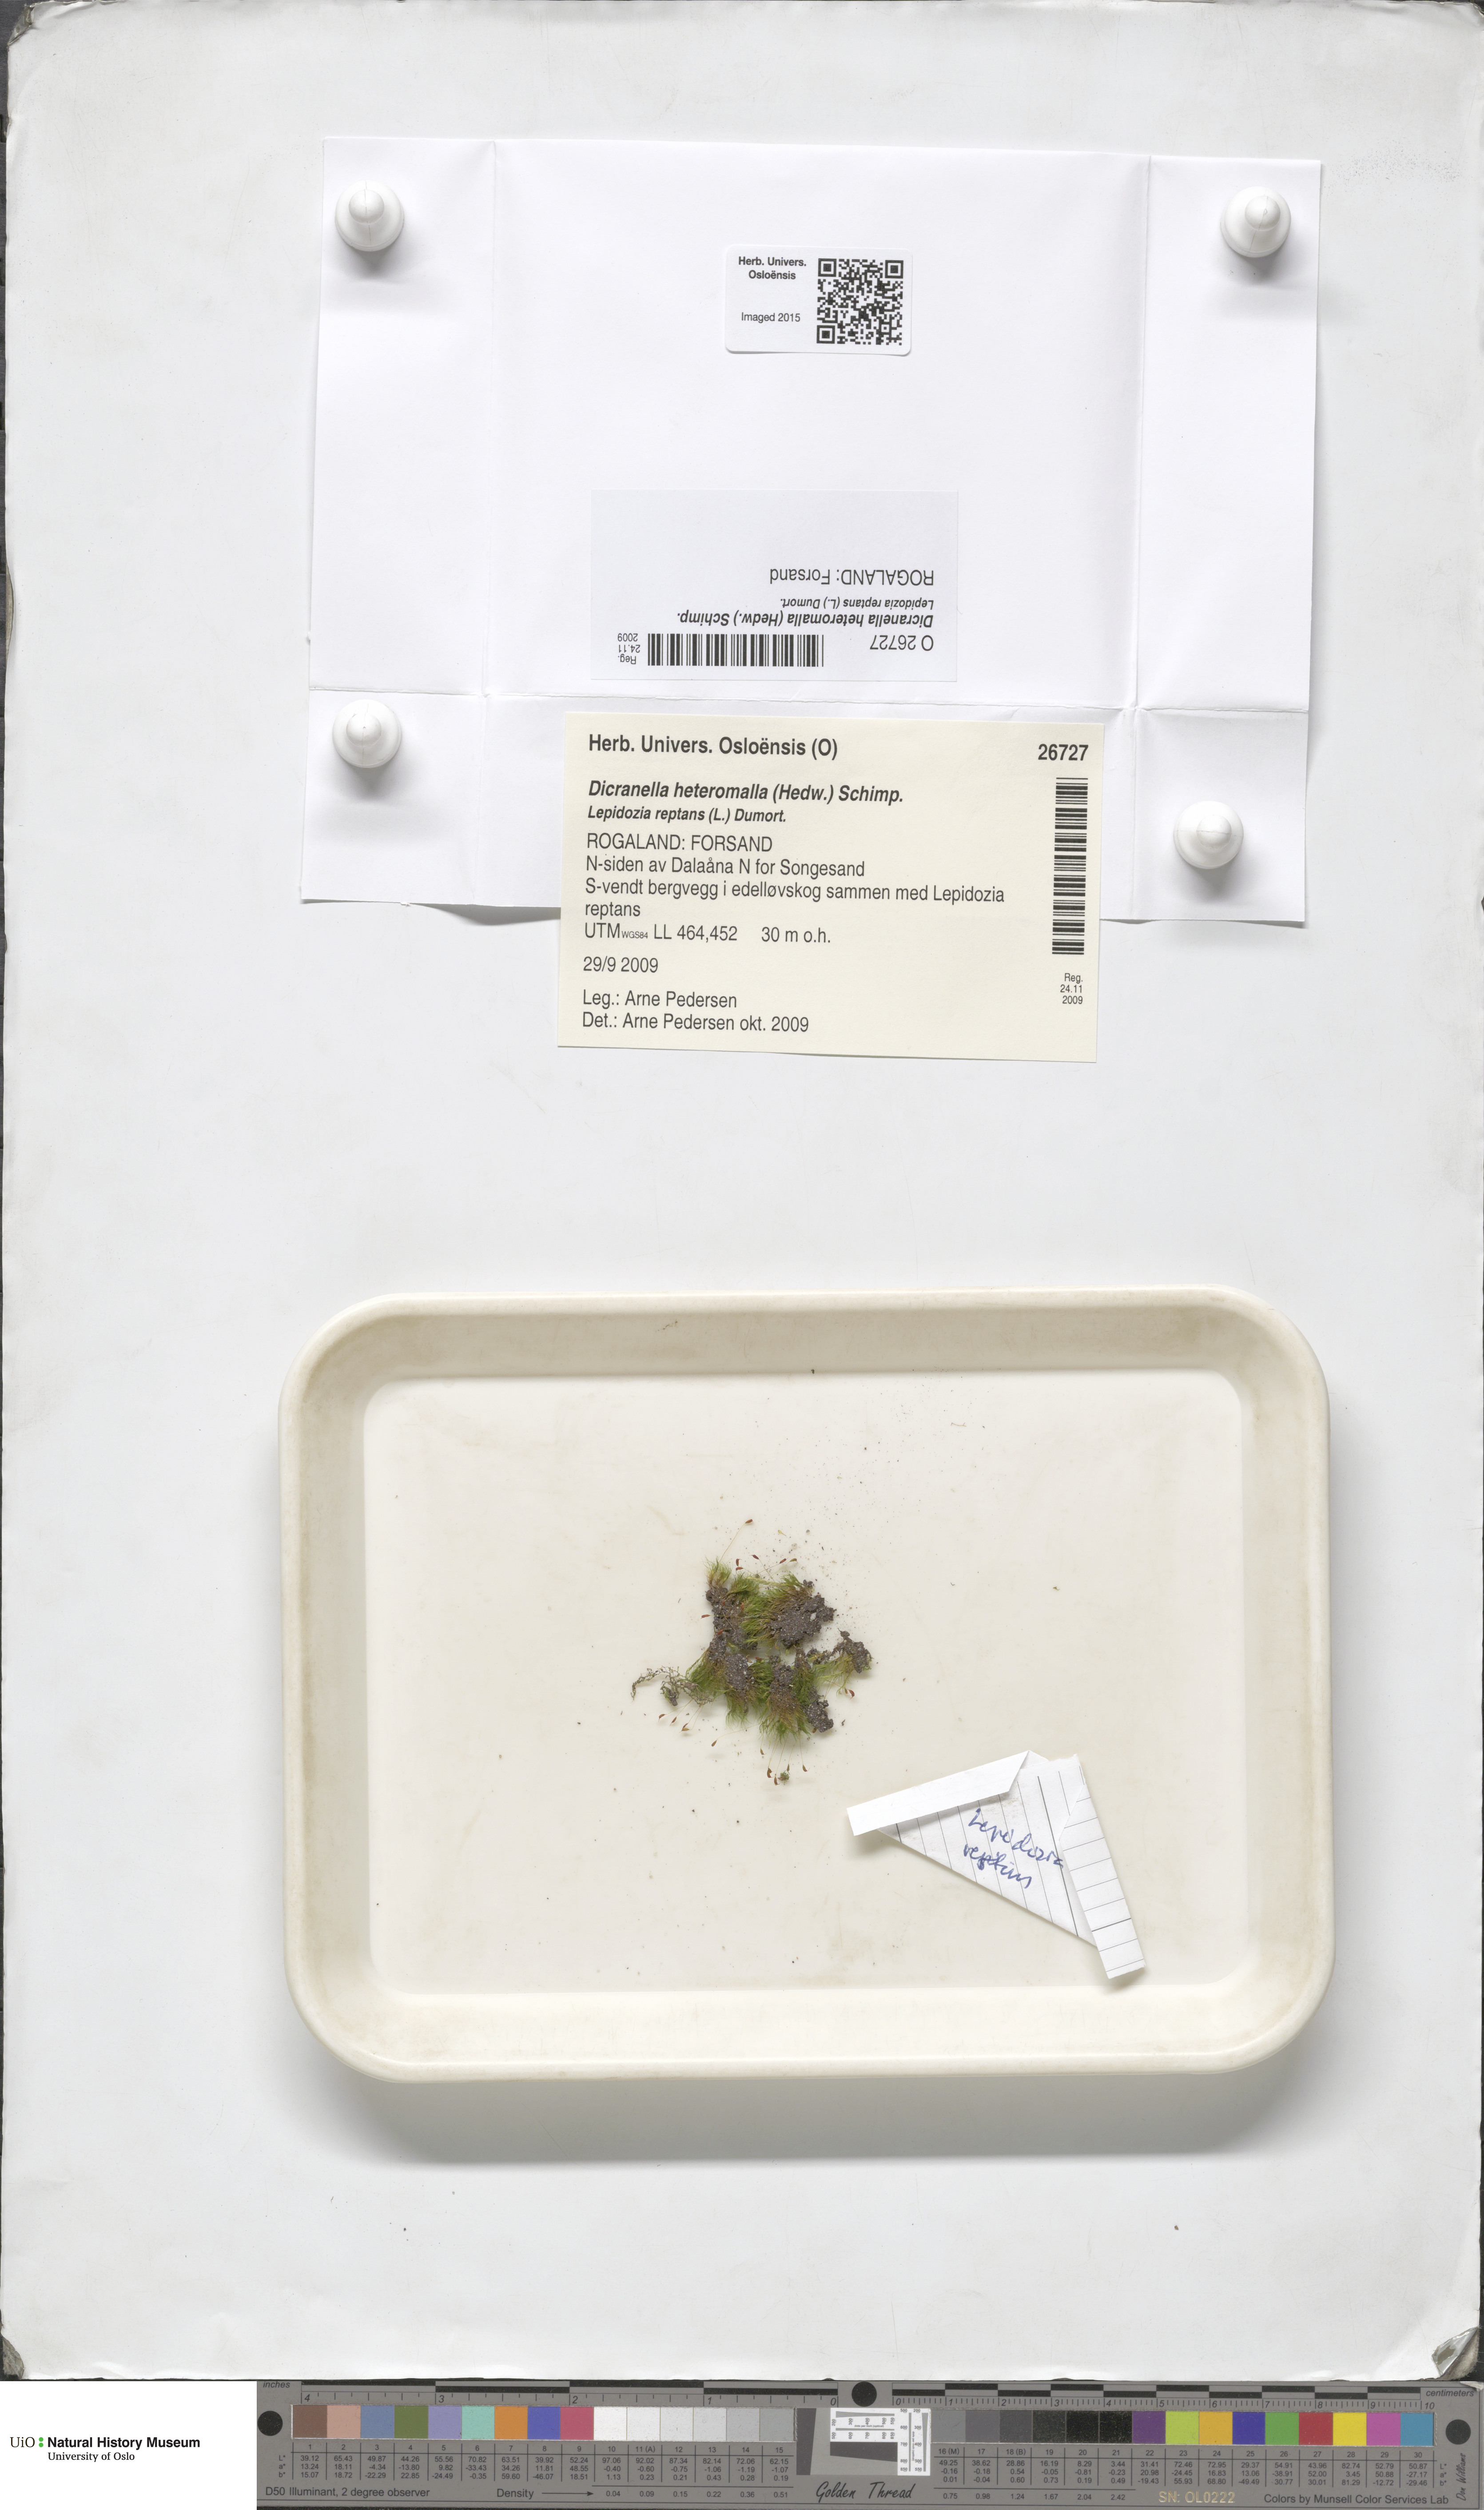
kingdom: Plantae
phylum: Bryophyta
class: Bryopsida
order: Dicranales
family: Dicranellaceae
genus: Dicranella
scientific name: Dicranella heteromalla
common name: Silky forklet moss
